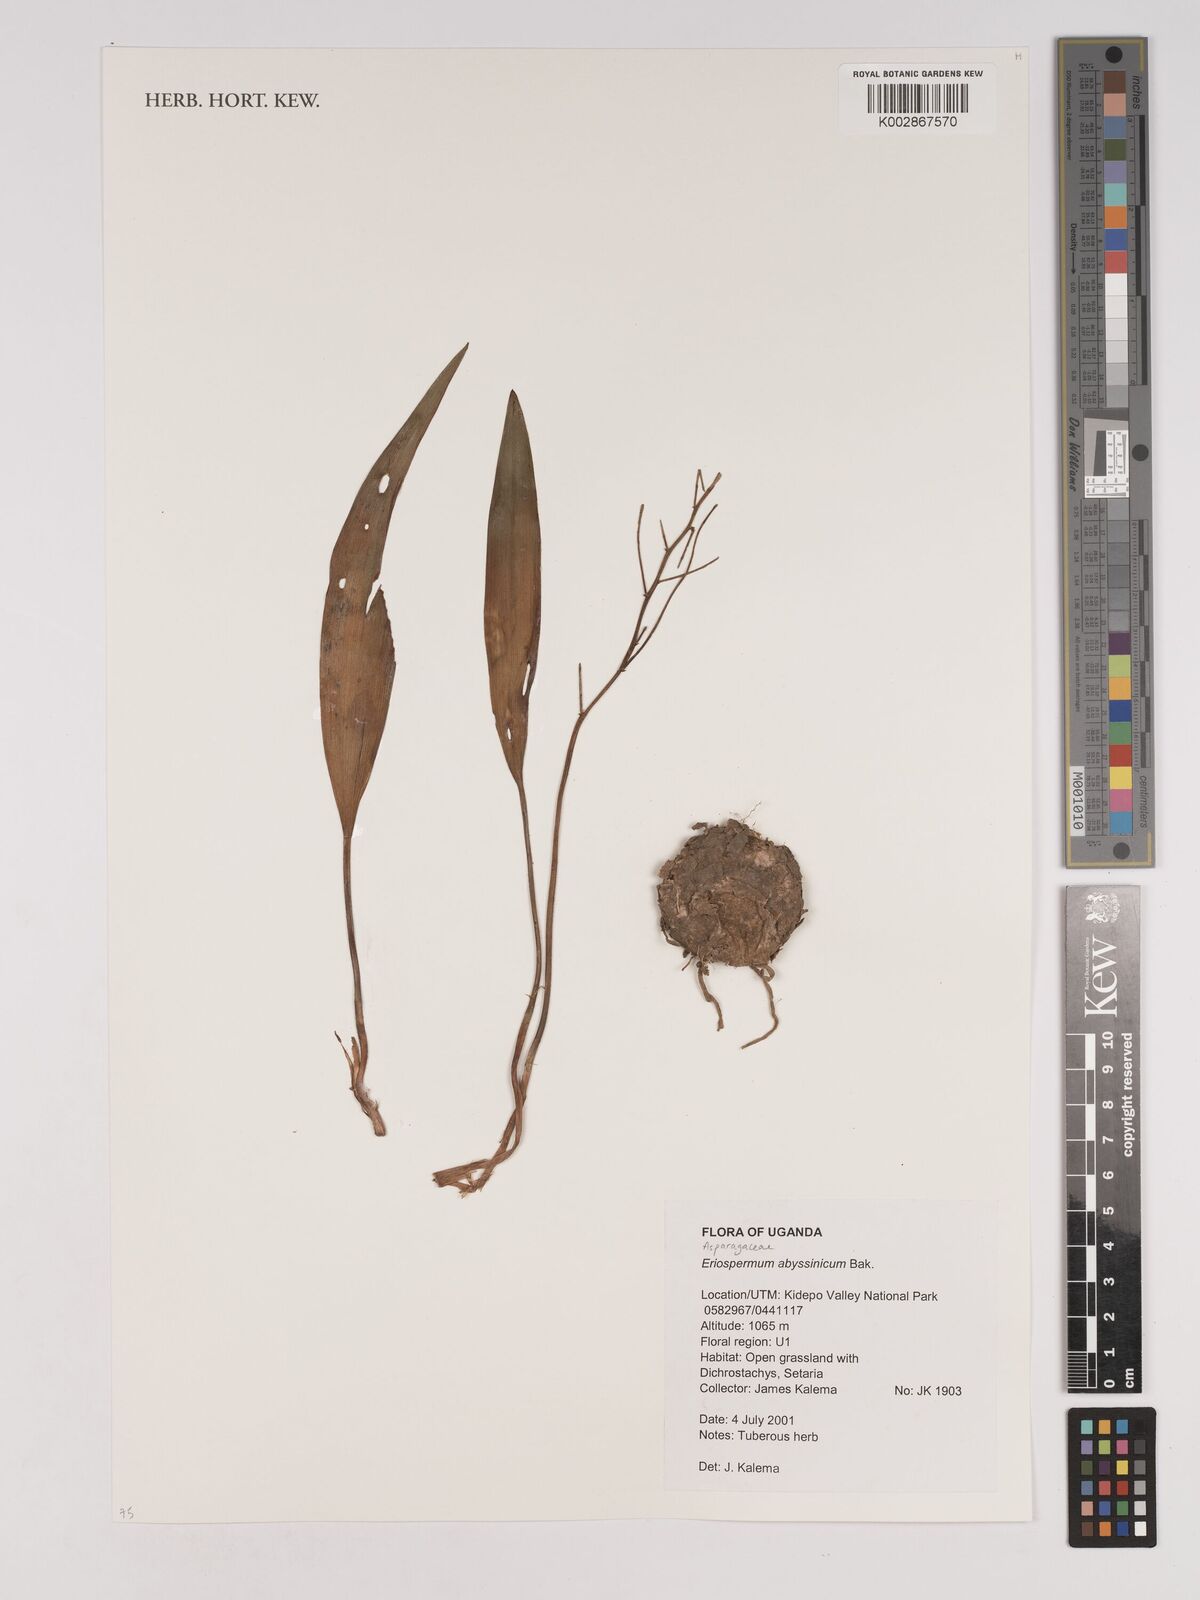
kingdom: Plantae
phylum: Tracheophyta
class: Liliopsida
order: Asparagales
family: Asparagaceae
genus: Eriospermum
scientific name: Eriospermum abyssinicum
